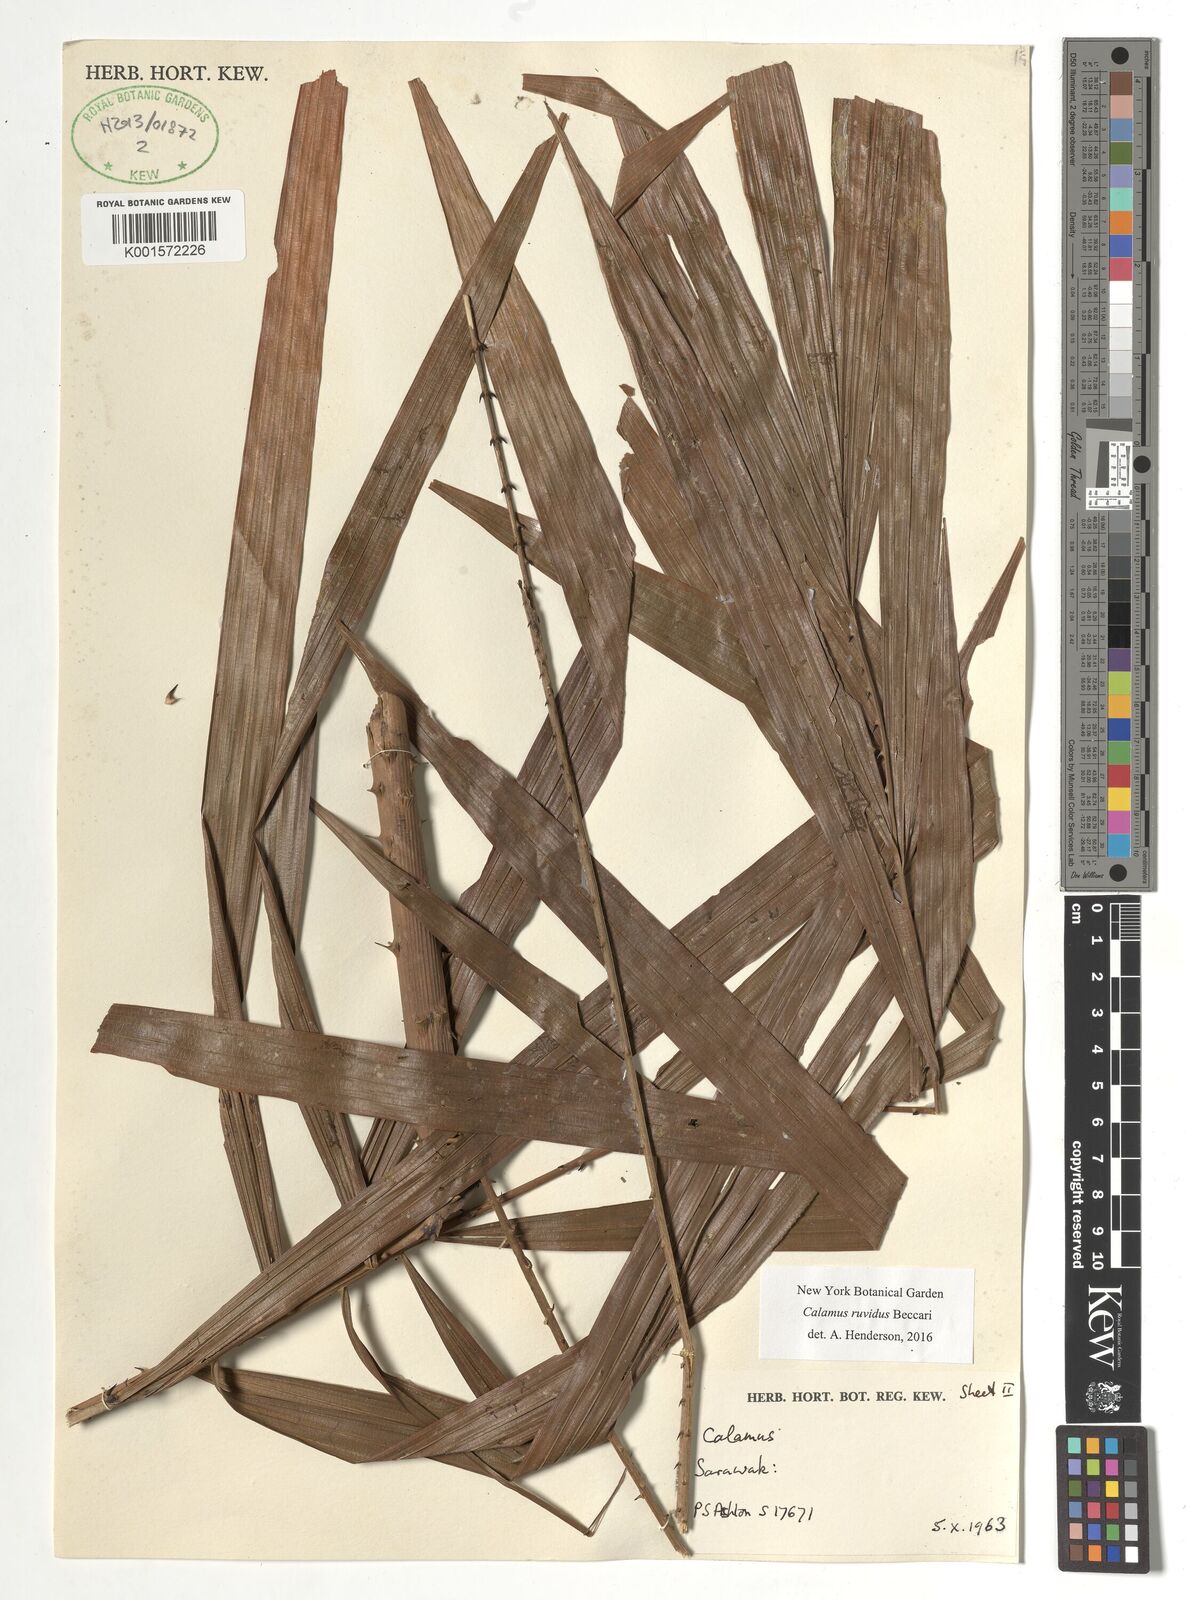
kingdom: Plantae
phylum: Tracheophyta
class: Liliopsida
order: Arecales
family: Arecaceae
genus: Calamus
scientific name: Calamus ruvidus
